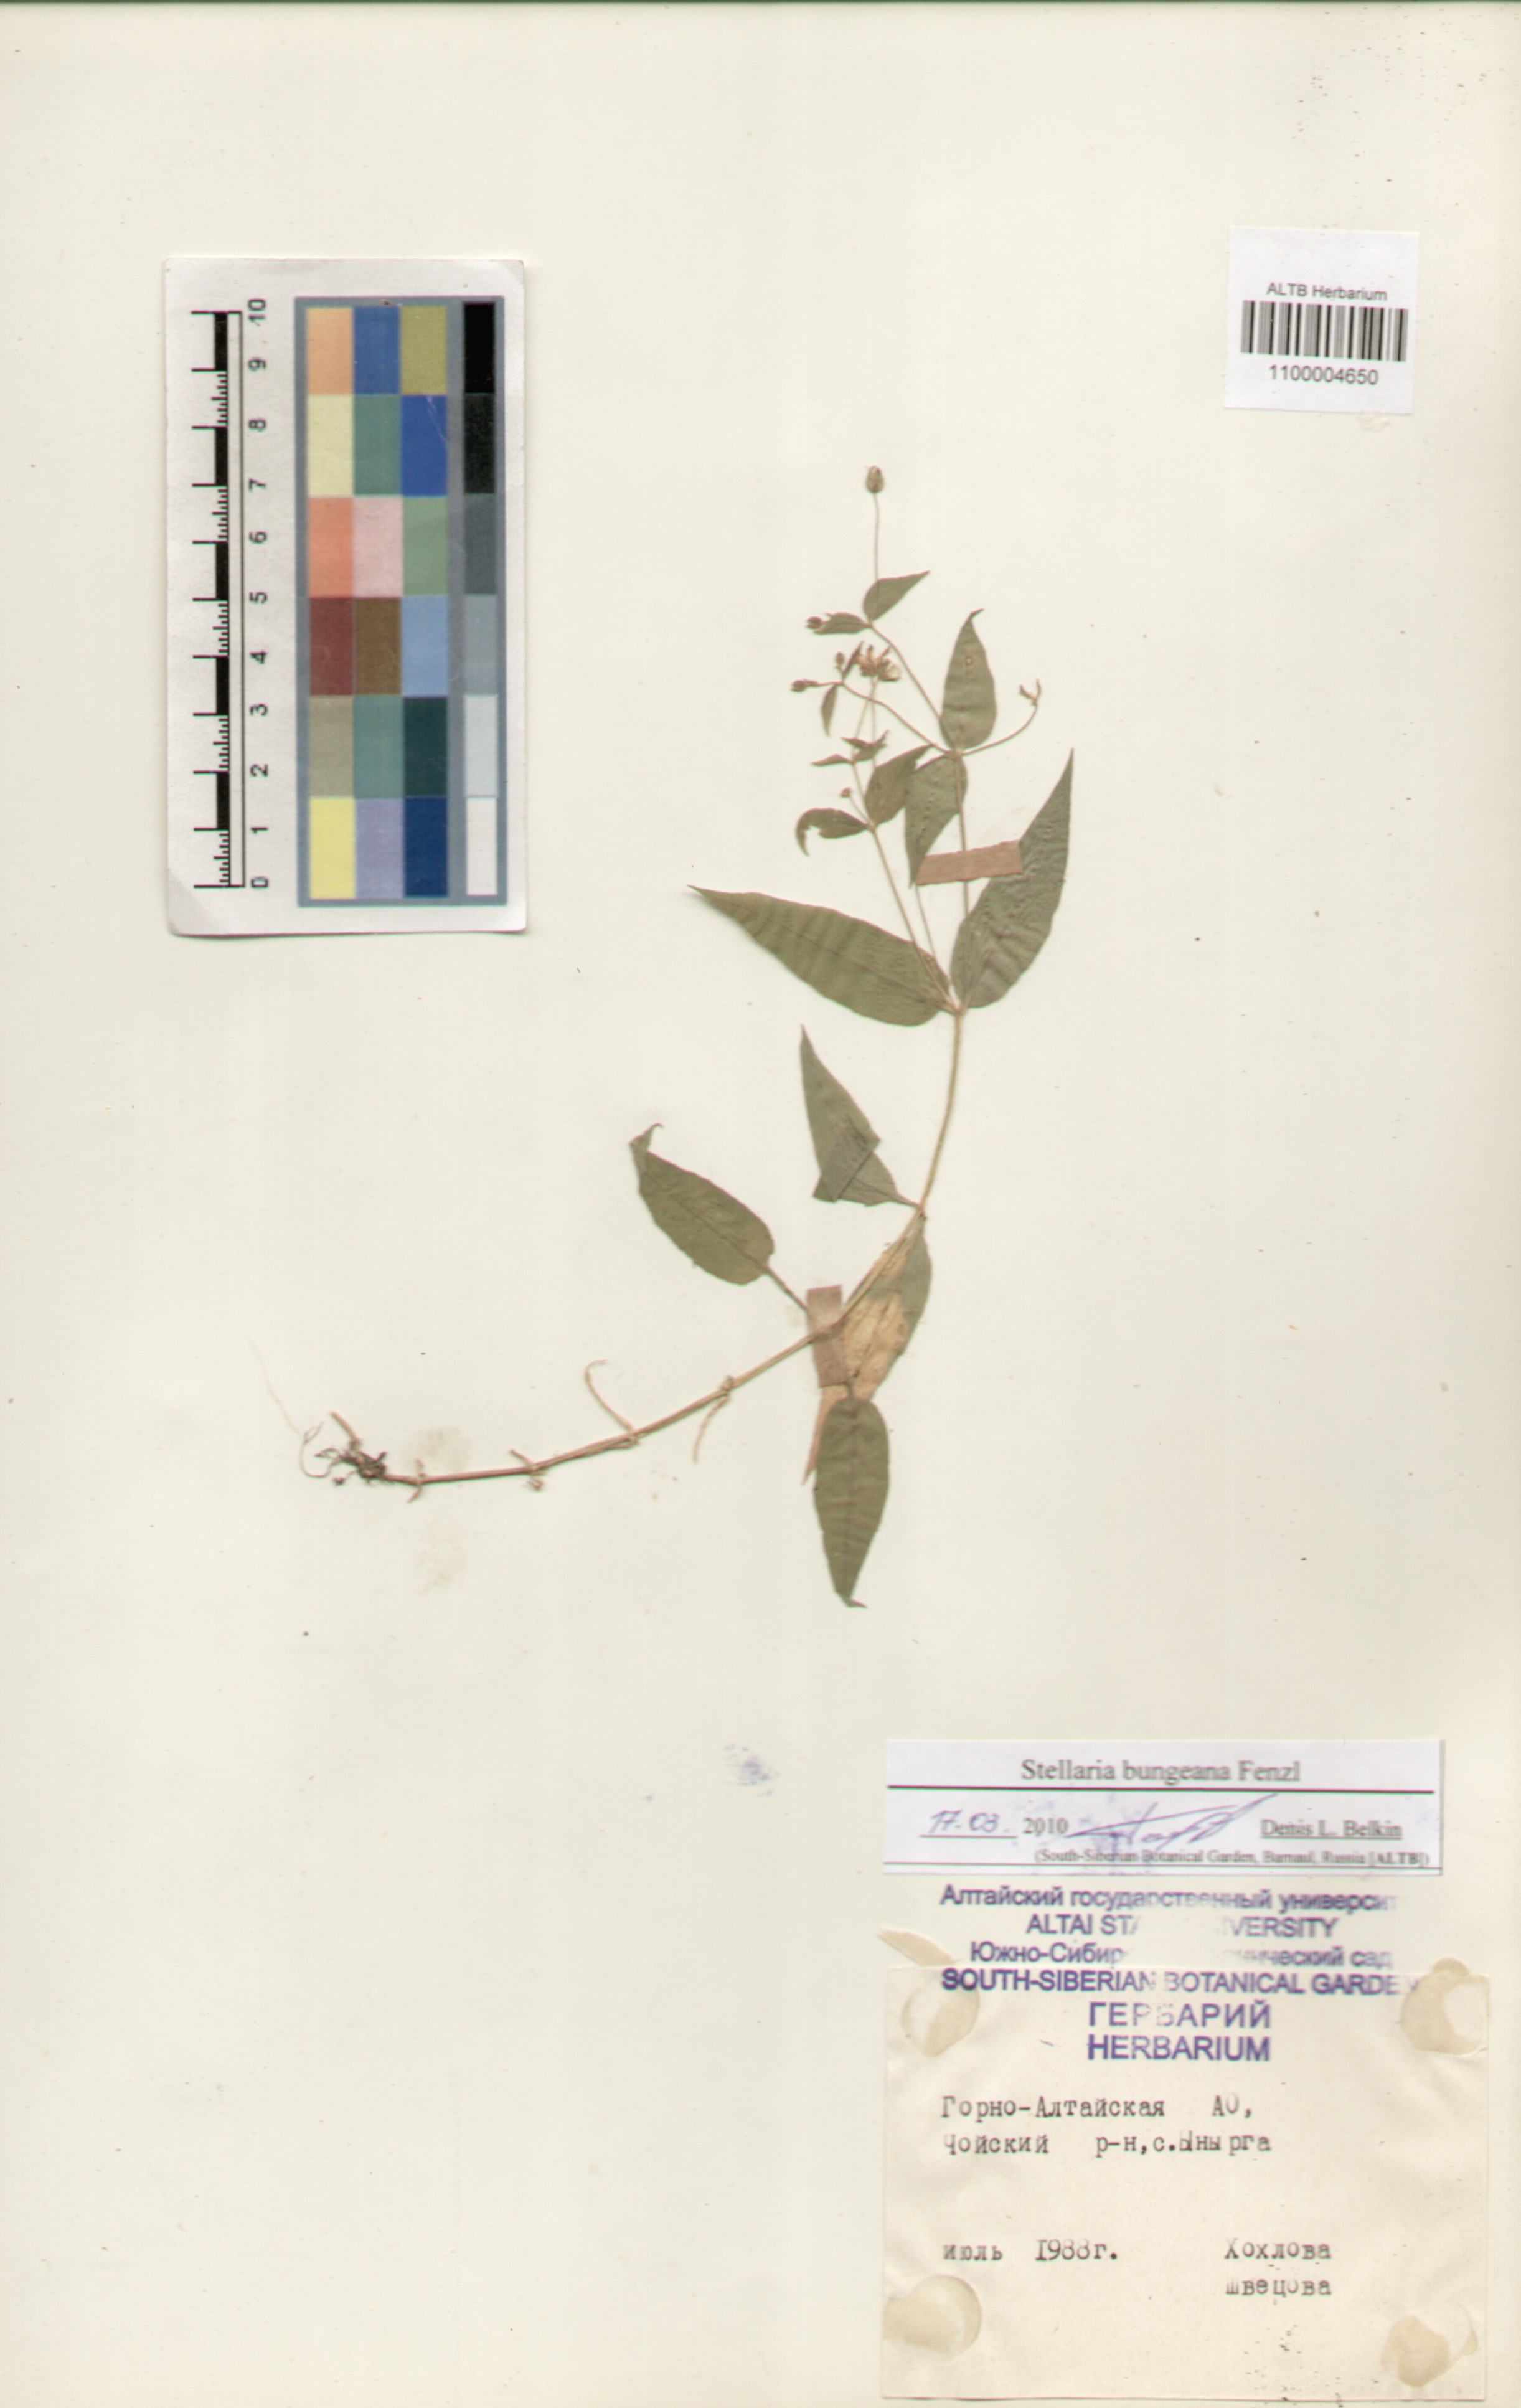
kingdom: Plantae
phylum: Tracheophyta
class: Magnoliopsida
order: Caryophyllales
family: Caryophyllaceae
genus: Stellaria
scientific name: Stellaria bungeana
